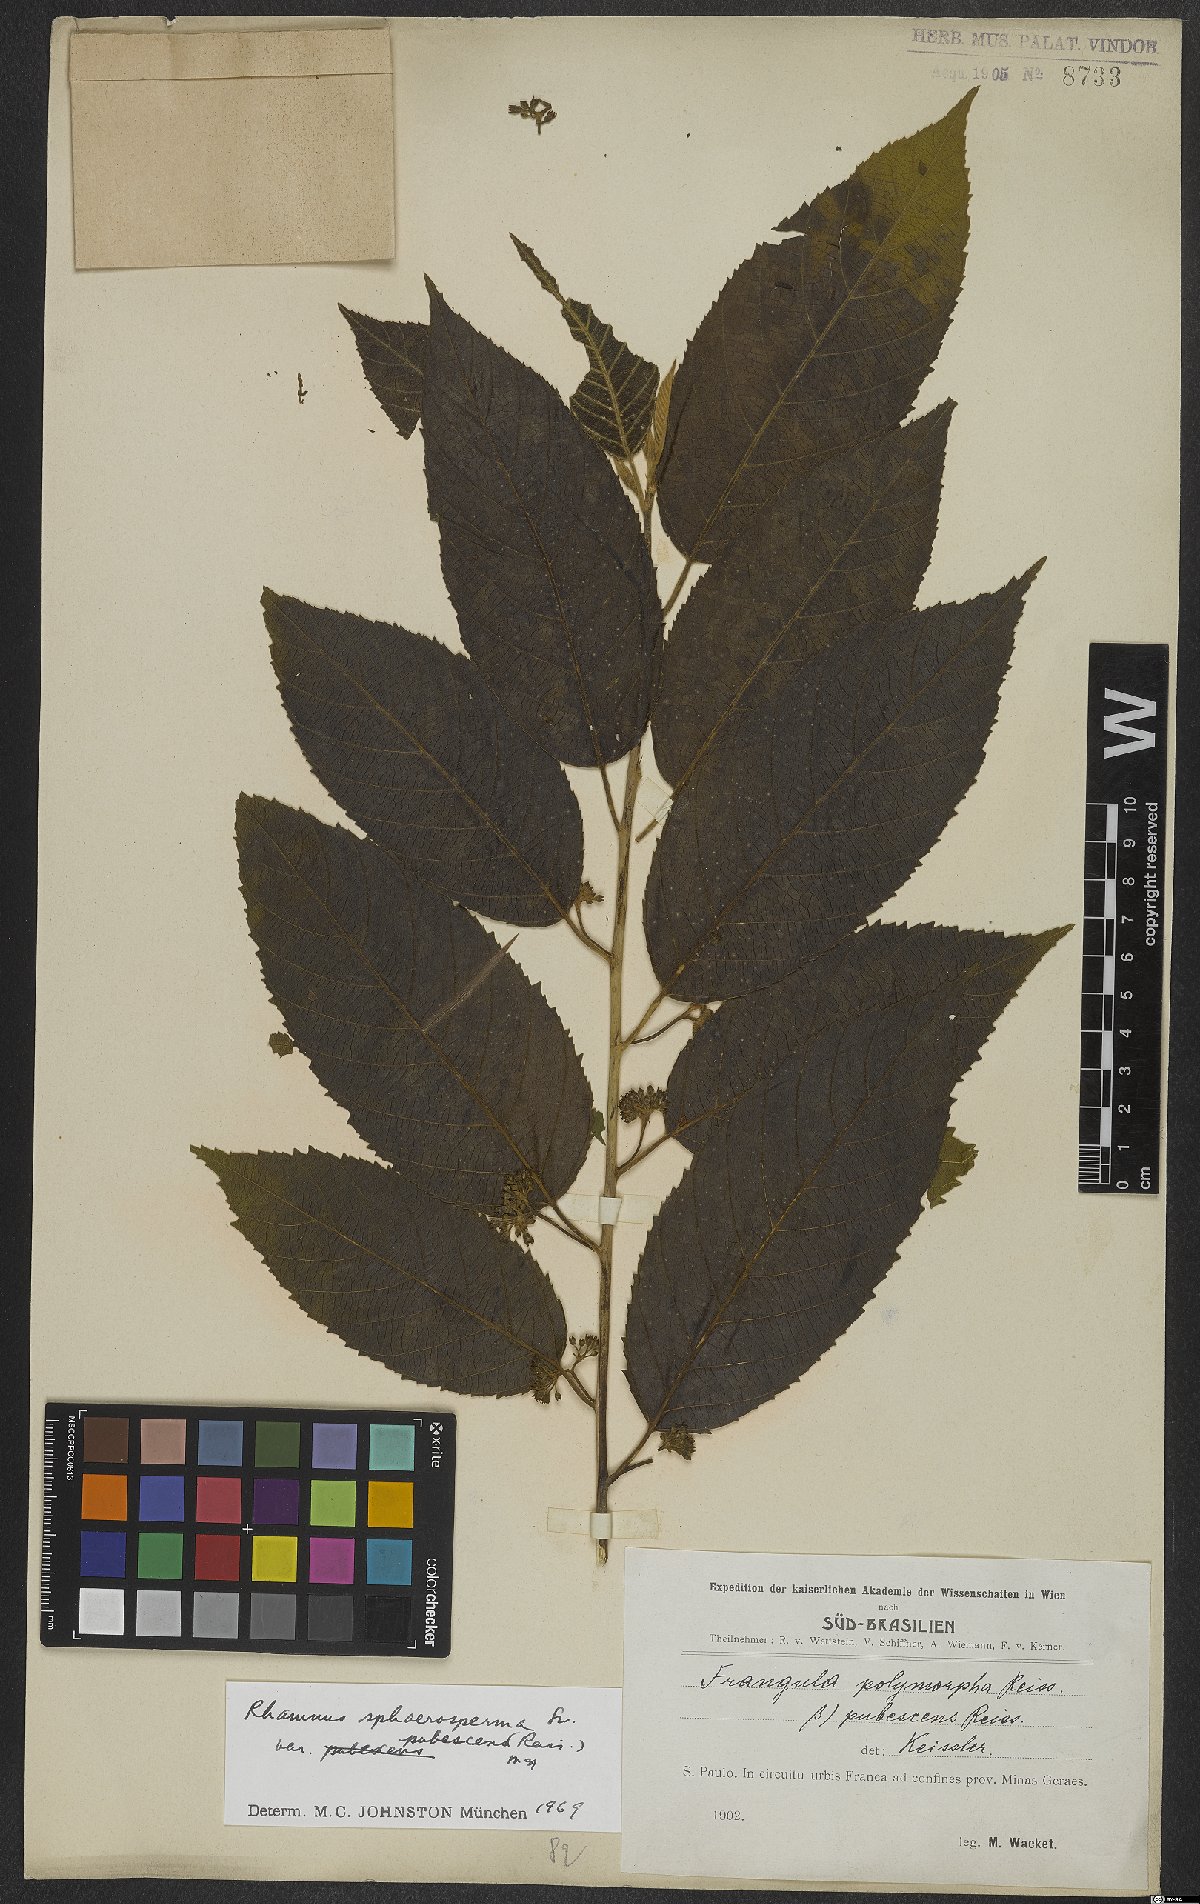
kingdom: Plantae
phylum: Tracheophyta
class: Magnoliopsida
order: Rosales
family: Rhamnaceae
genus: Frangula
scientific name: Frangula sphaerosperma
